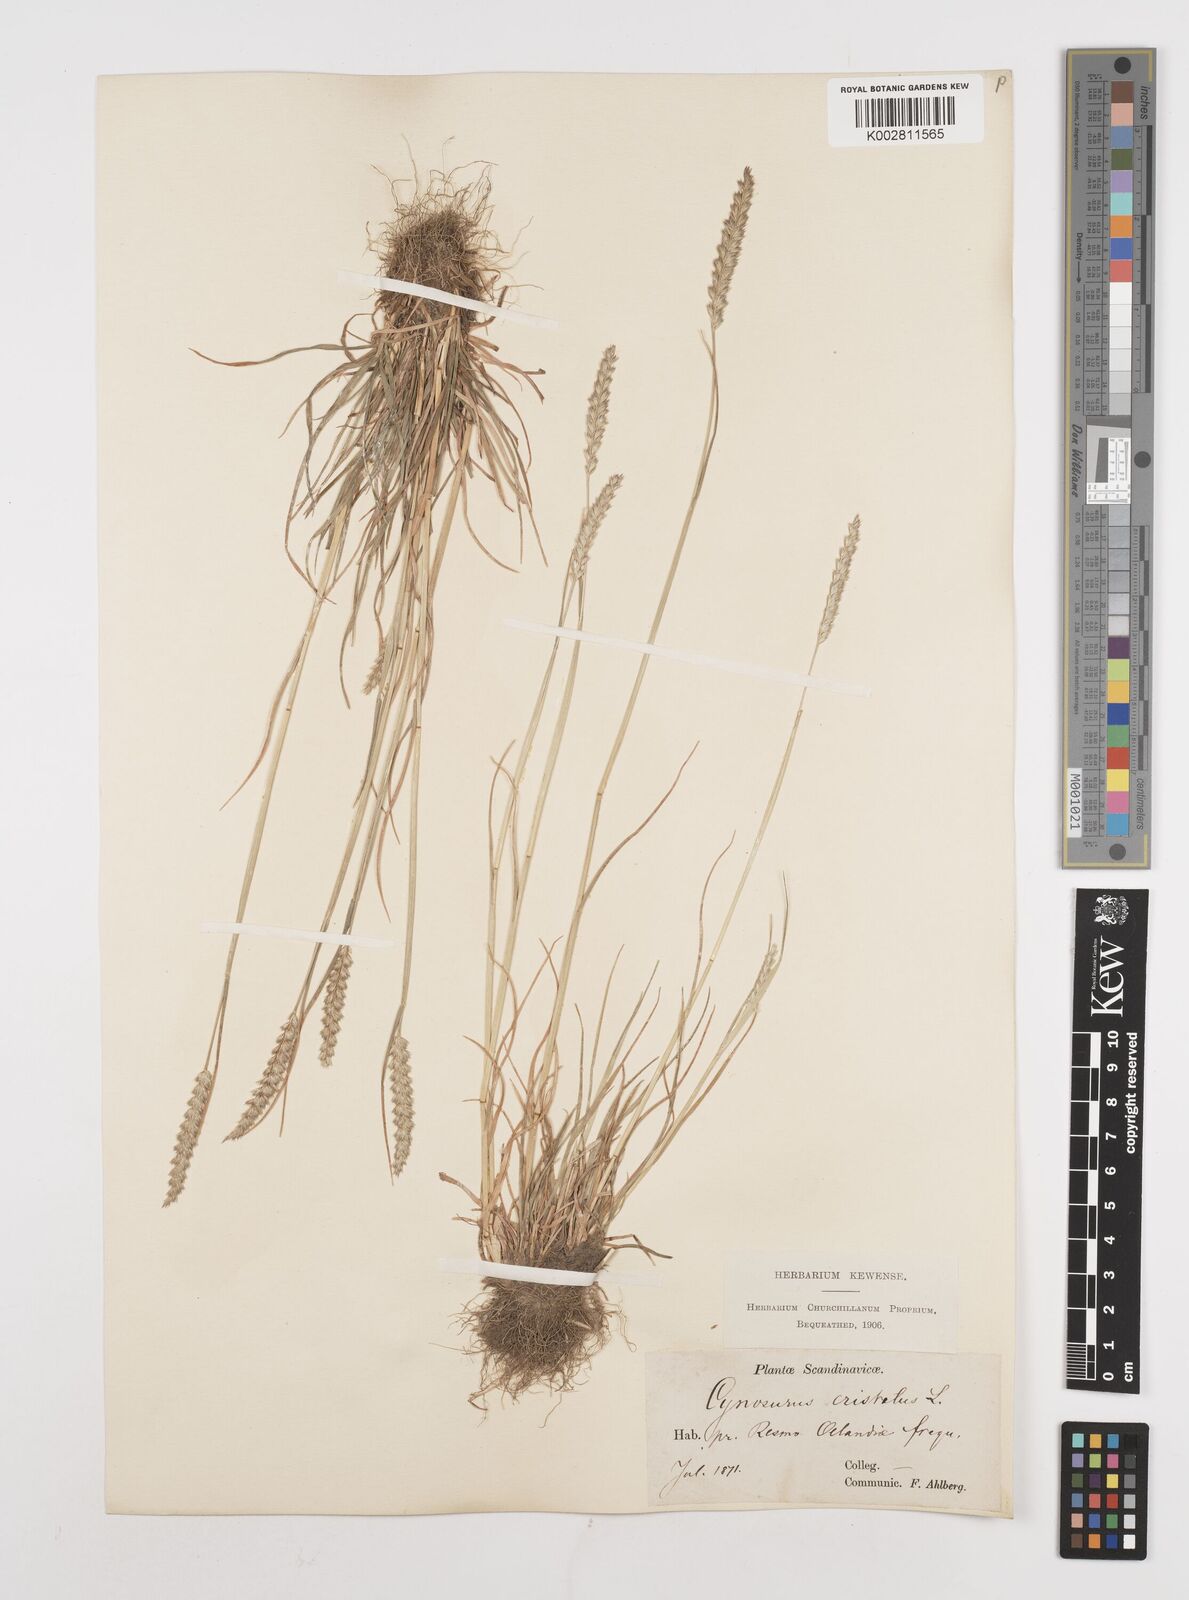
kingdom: Plantae
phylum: Tracheophyta
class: Liliopsida
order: Poales
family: Poaceae
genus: Cynosurus
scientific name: Cynosurus cristatus
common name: Crested dog's-tail
